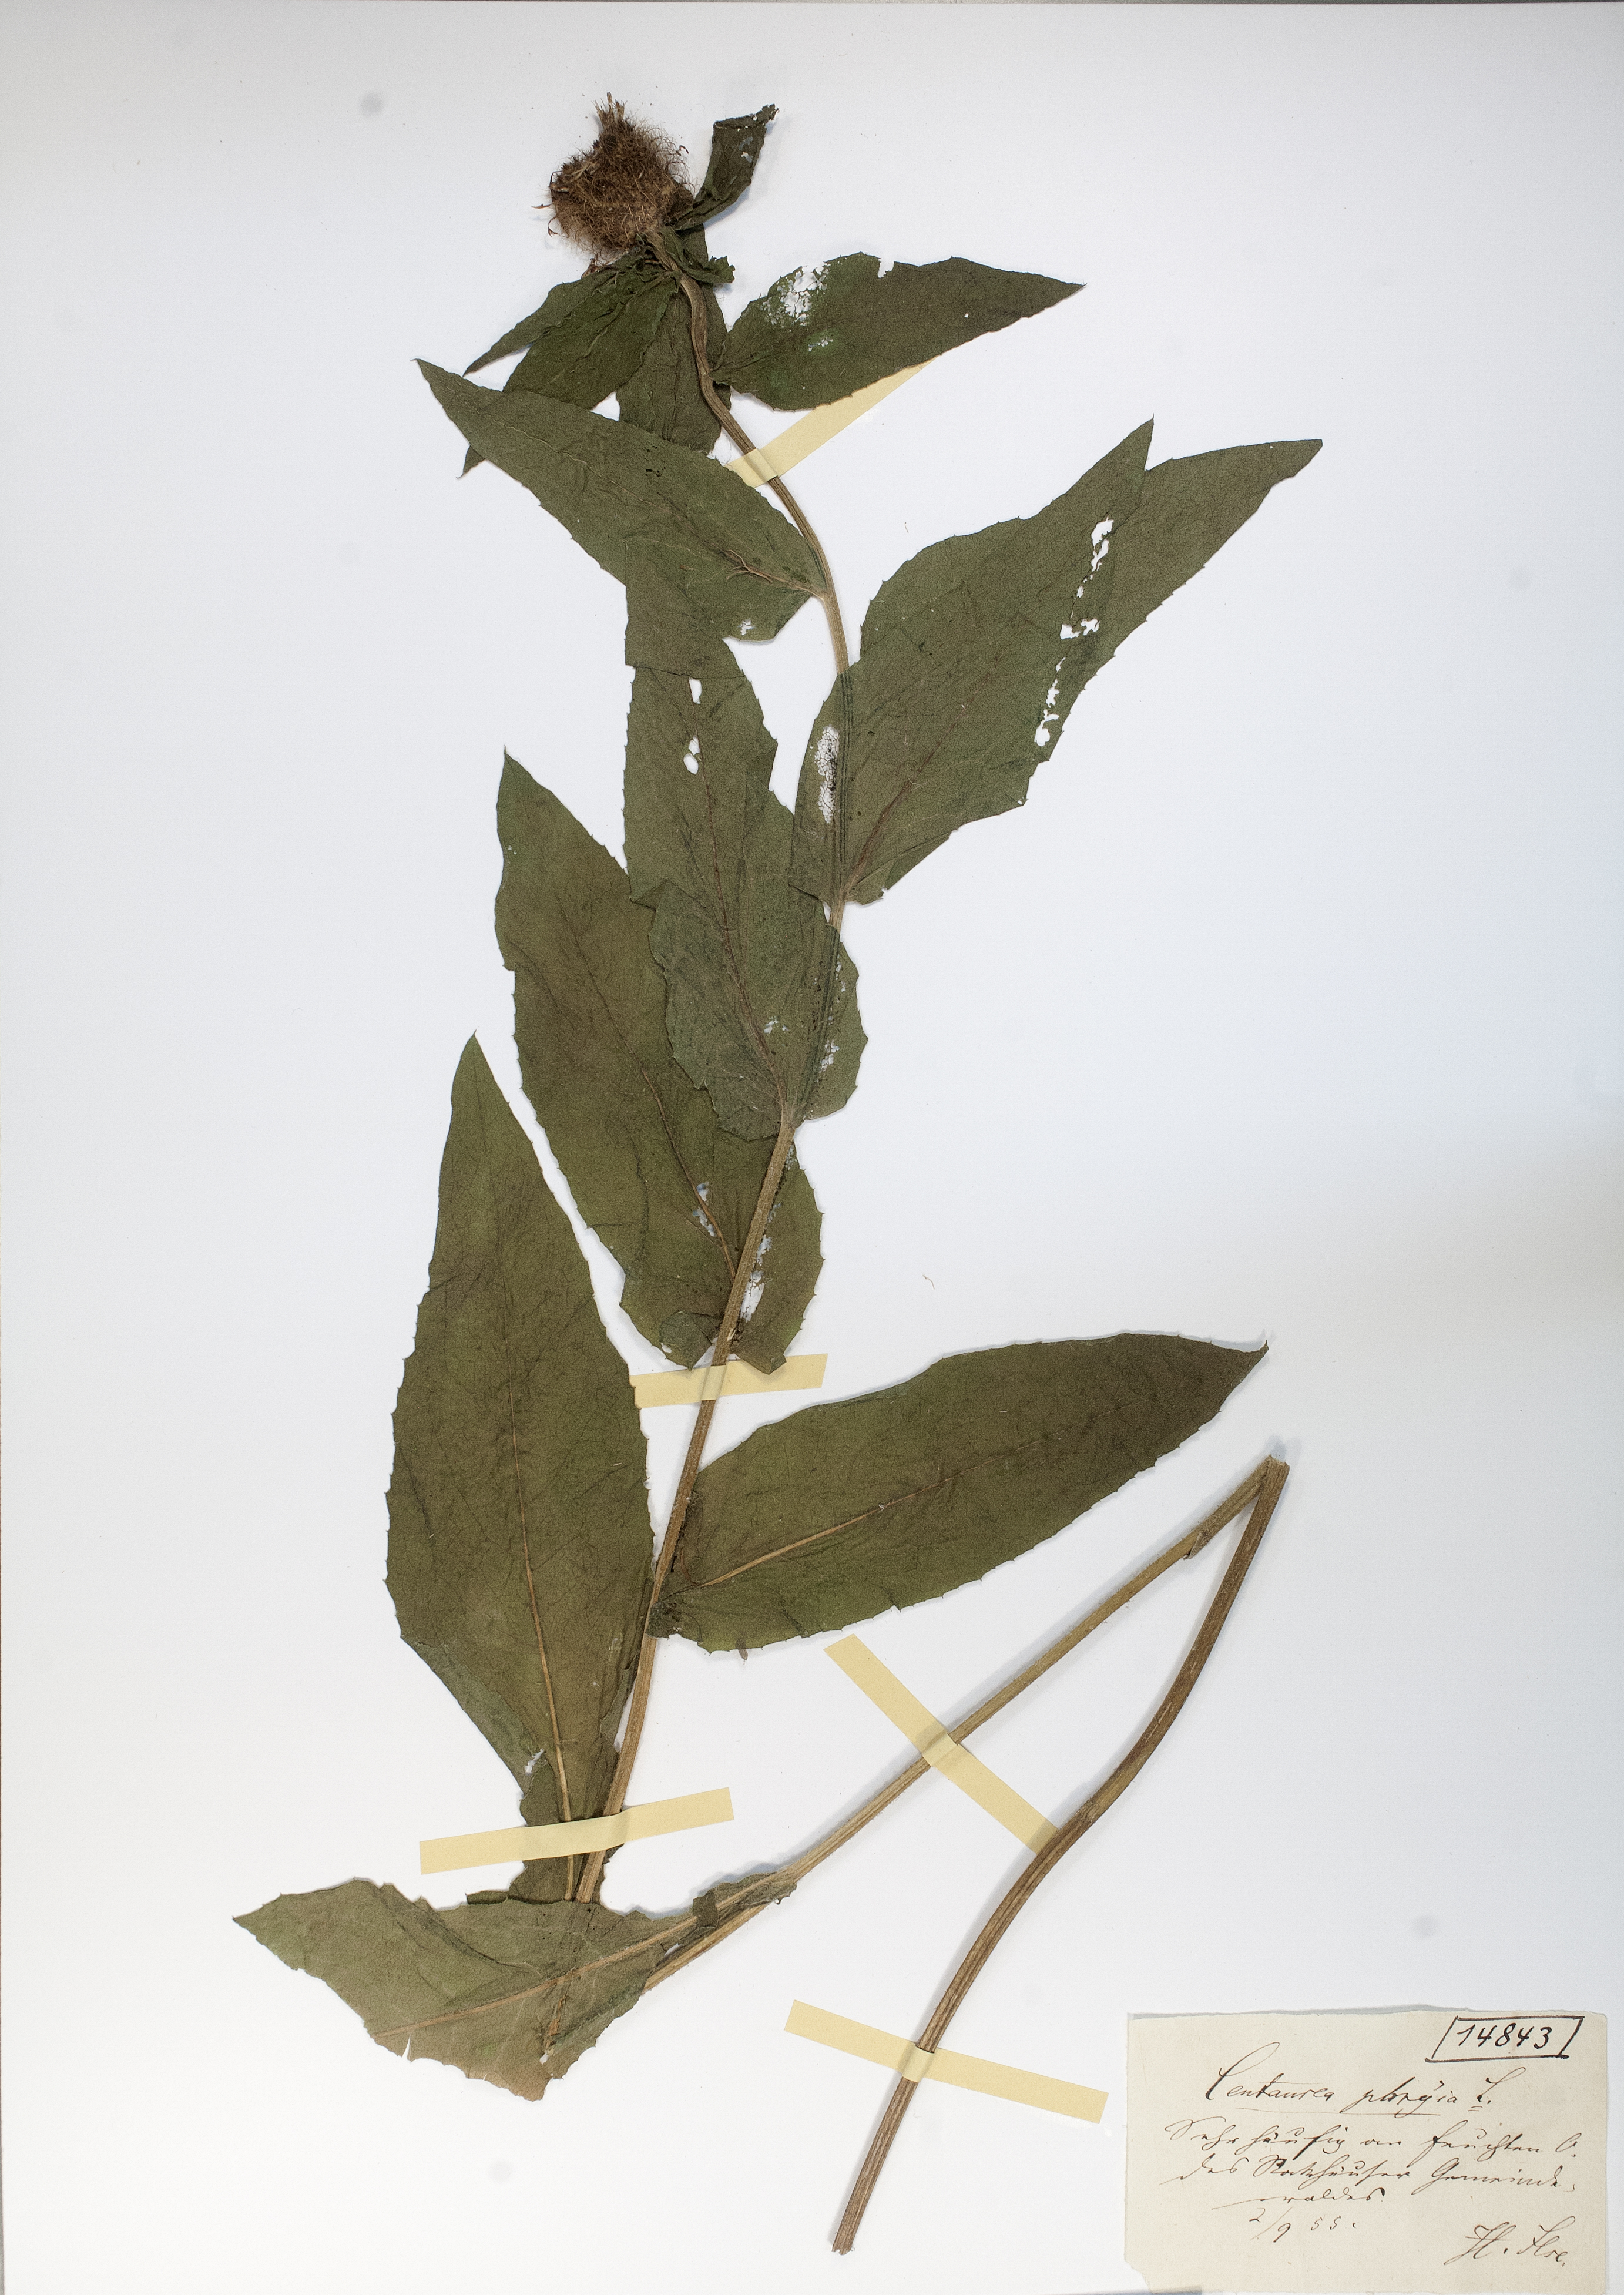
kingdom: Plantae
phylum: Tracheophyta
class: Magnoliopsida
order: Asterales
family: Asteraceae
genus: Centaurea
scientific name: Centaurea phrygia
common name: Wig knapweed
